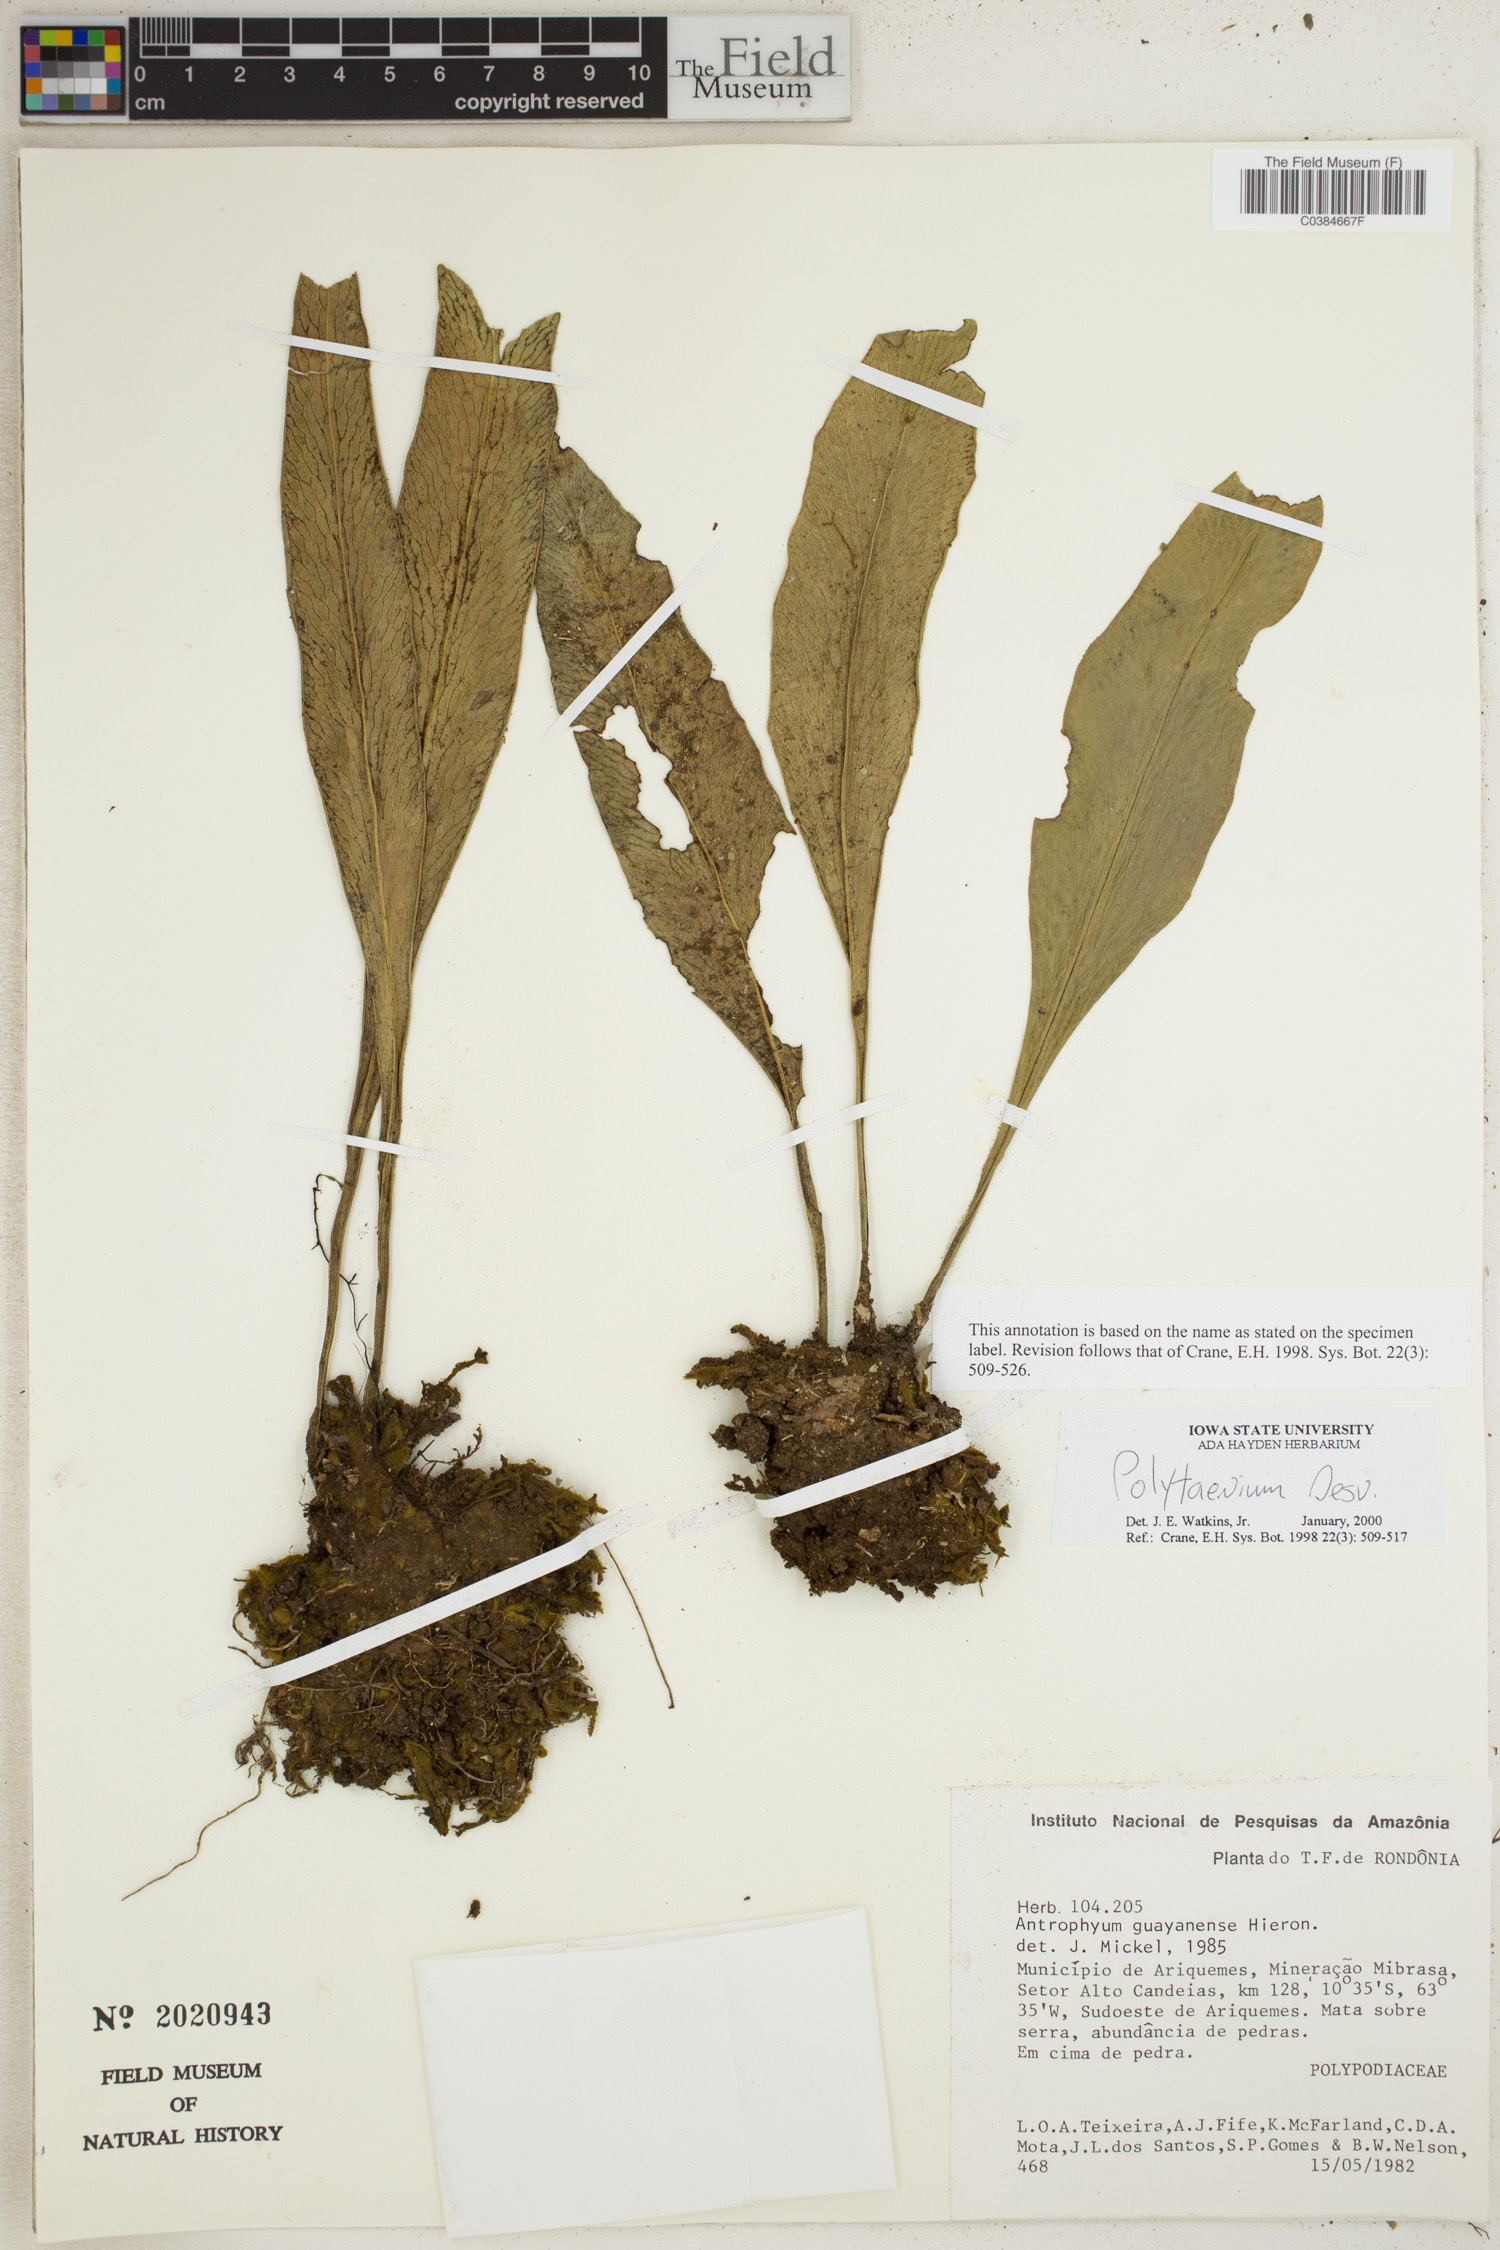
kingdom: Plantae
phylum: Tracheophyta
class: Polypodiopsida
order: Polypodiales
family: Pteridaceae
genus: Polytaenium
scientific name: Polytaenium
